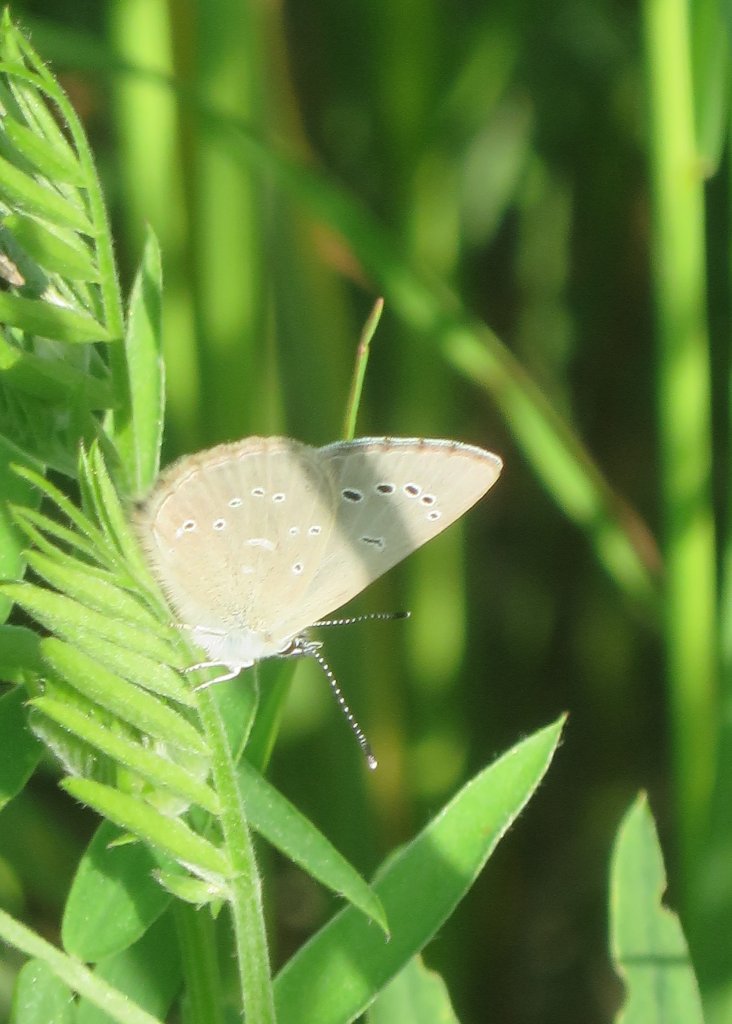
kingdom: Animalia
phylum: Arthropoda
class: Insecta
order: Lepidoptera
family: Lycaenidae
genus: Glaucopsyche
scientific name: Glaucopsyche lygdamus
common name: Silvery Blue
